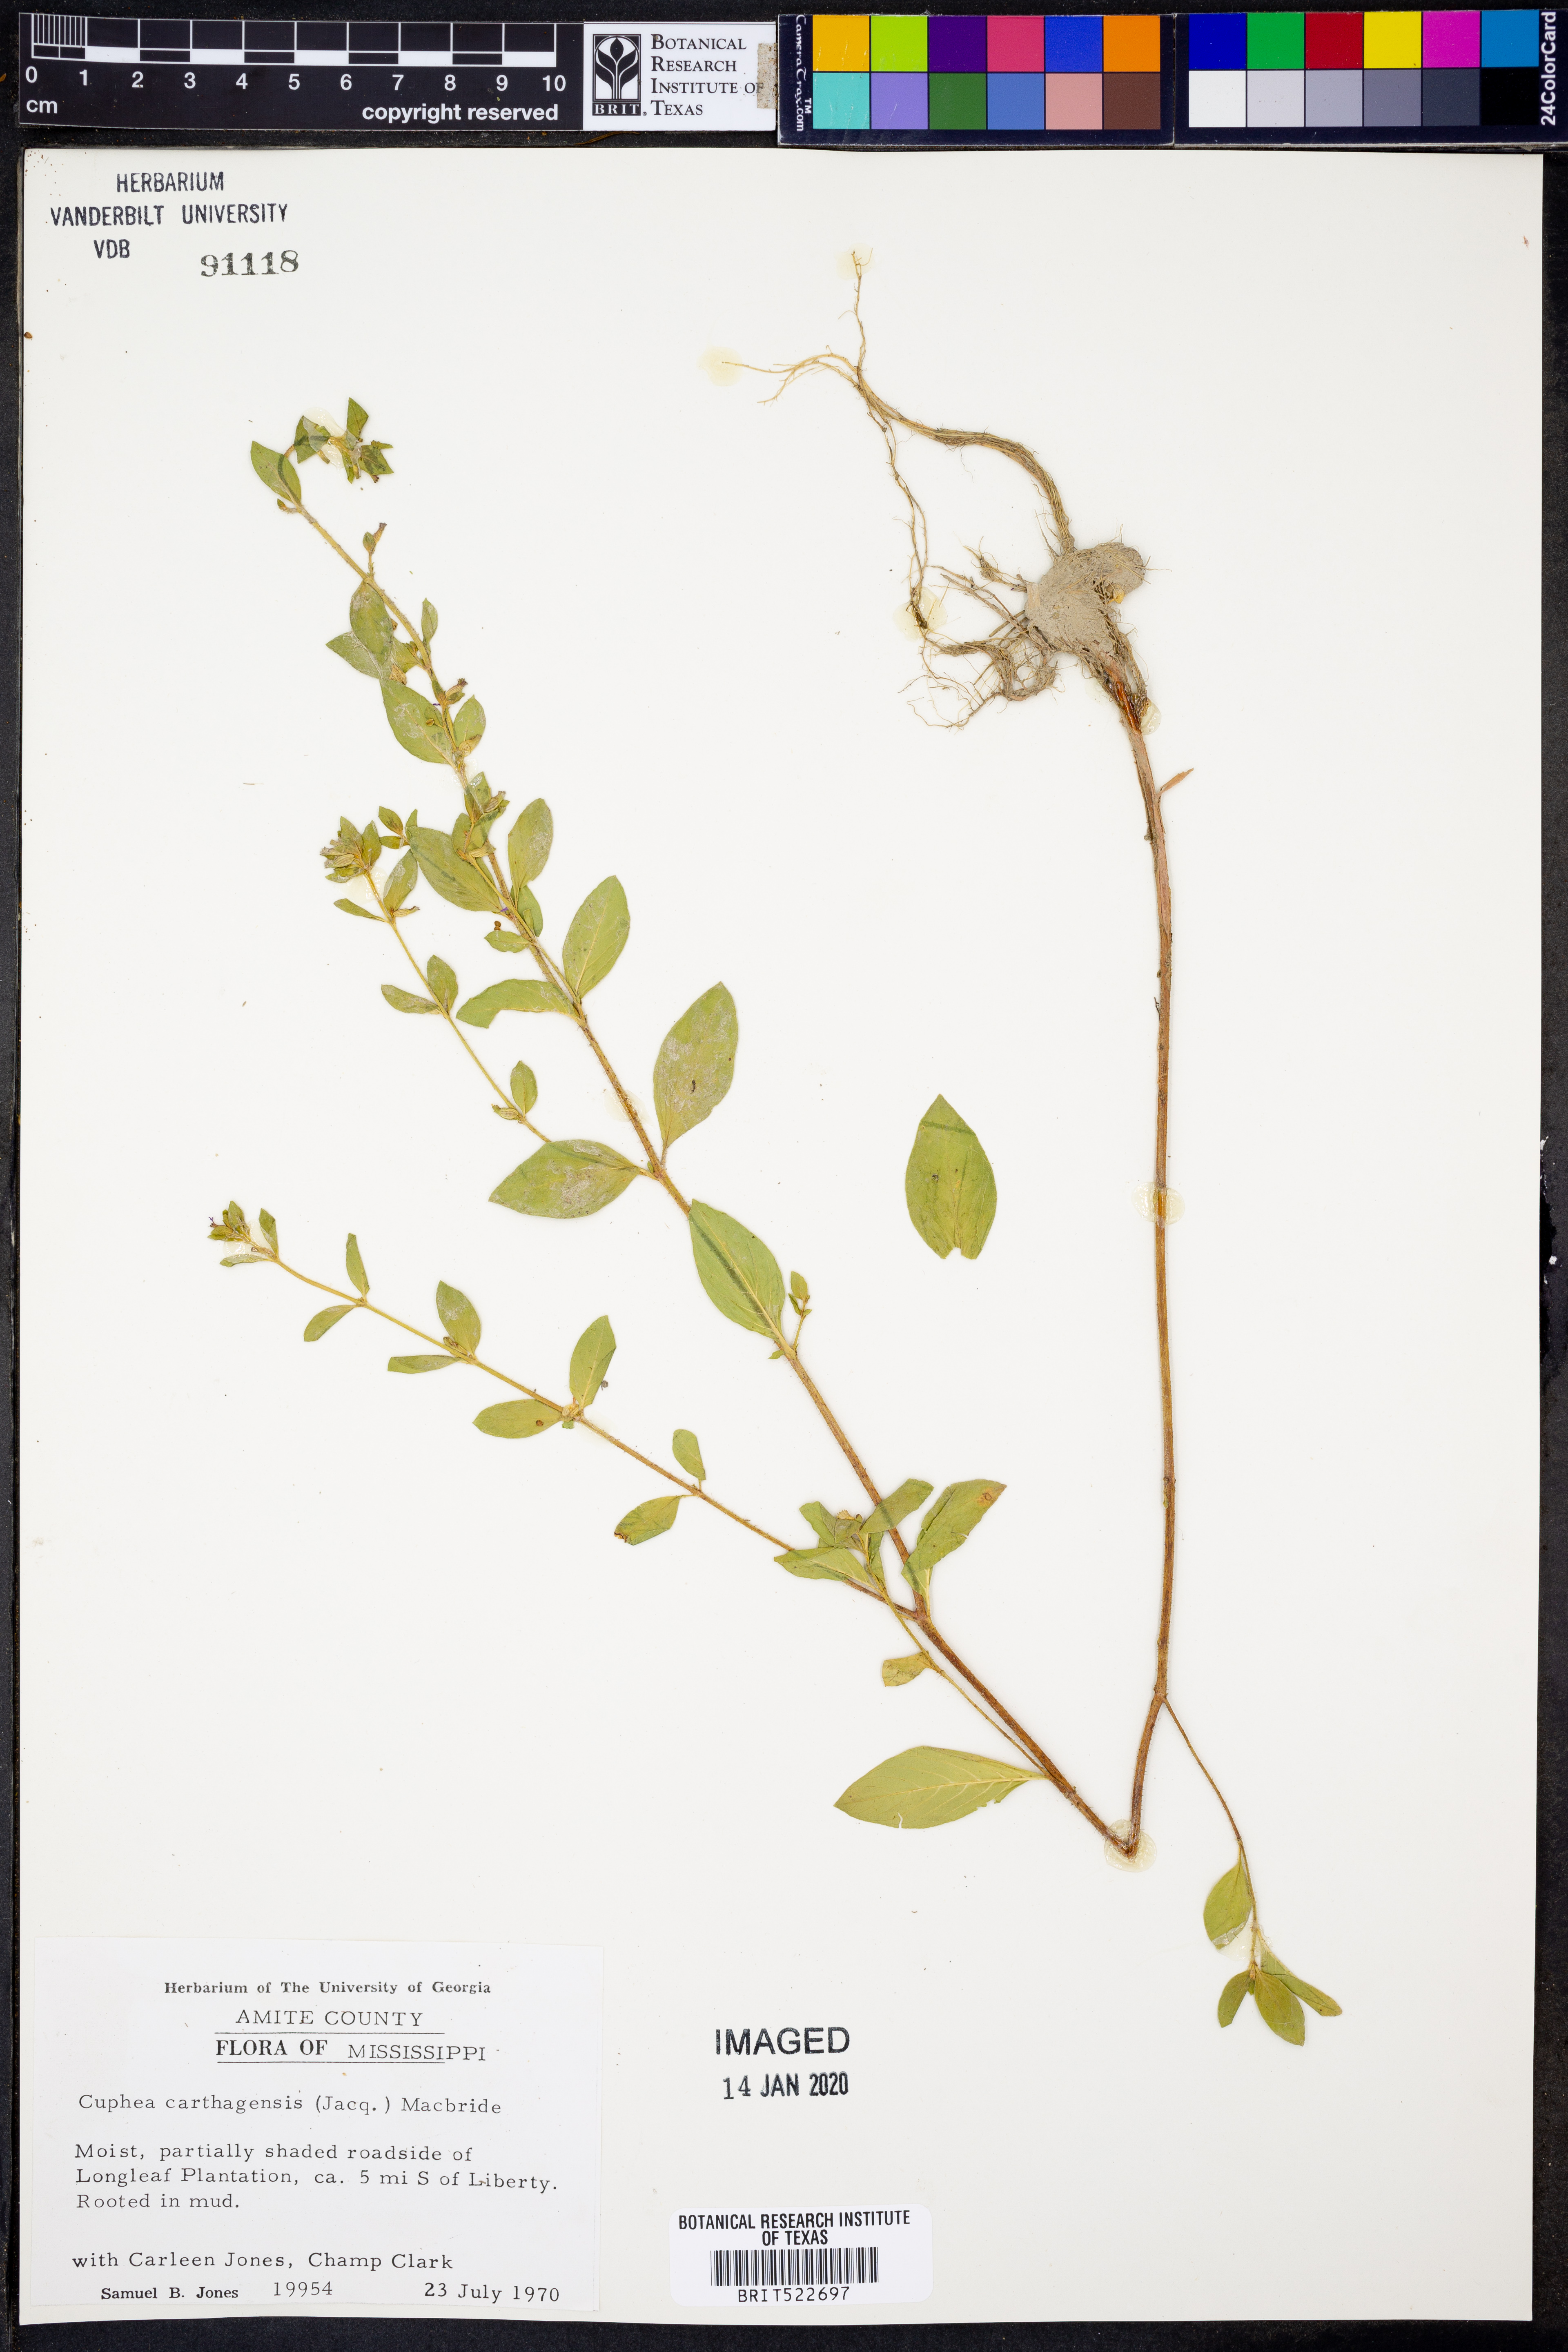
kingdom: Plantae
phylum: Tracheophyta
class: Magnoliopsida
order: Myrtales
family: Lythraceae
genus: Cuphea
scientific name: Cuphea carthagenensis
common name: Colombian waxweed
